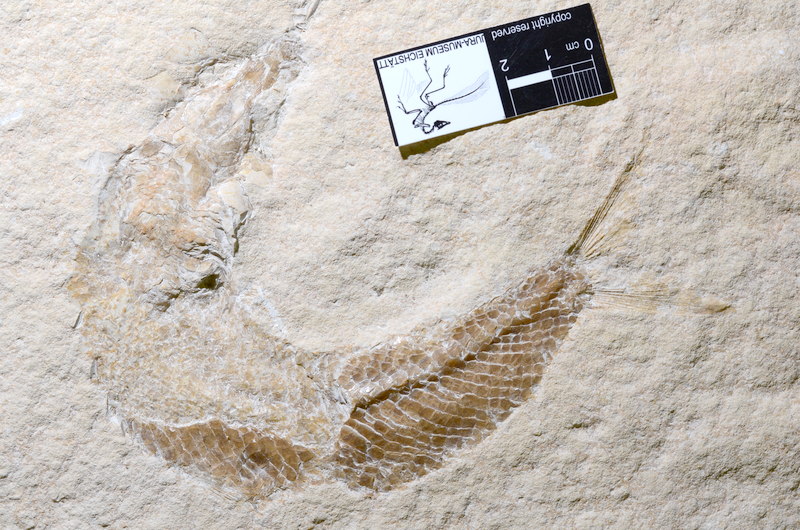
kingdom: Animalia
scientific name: Animalia
